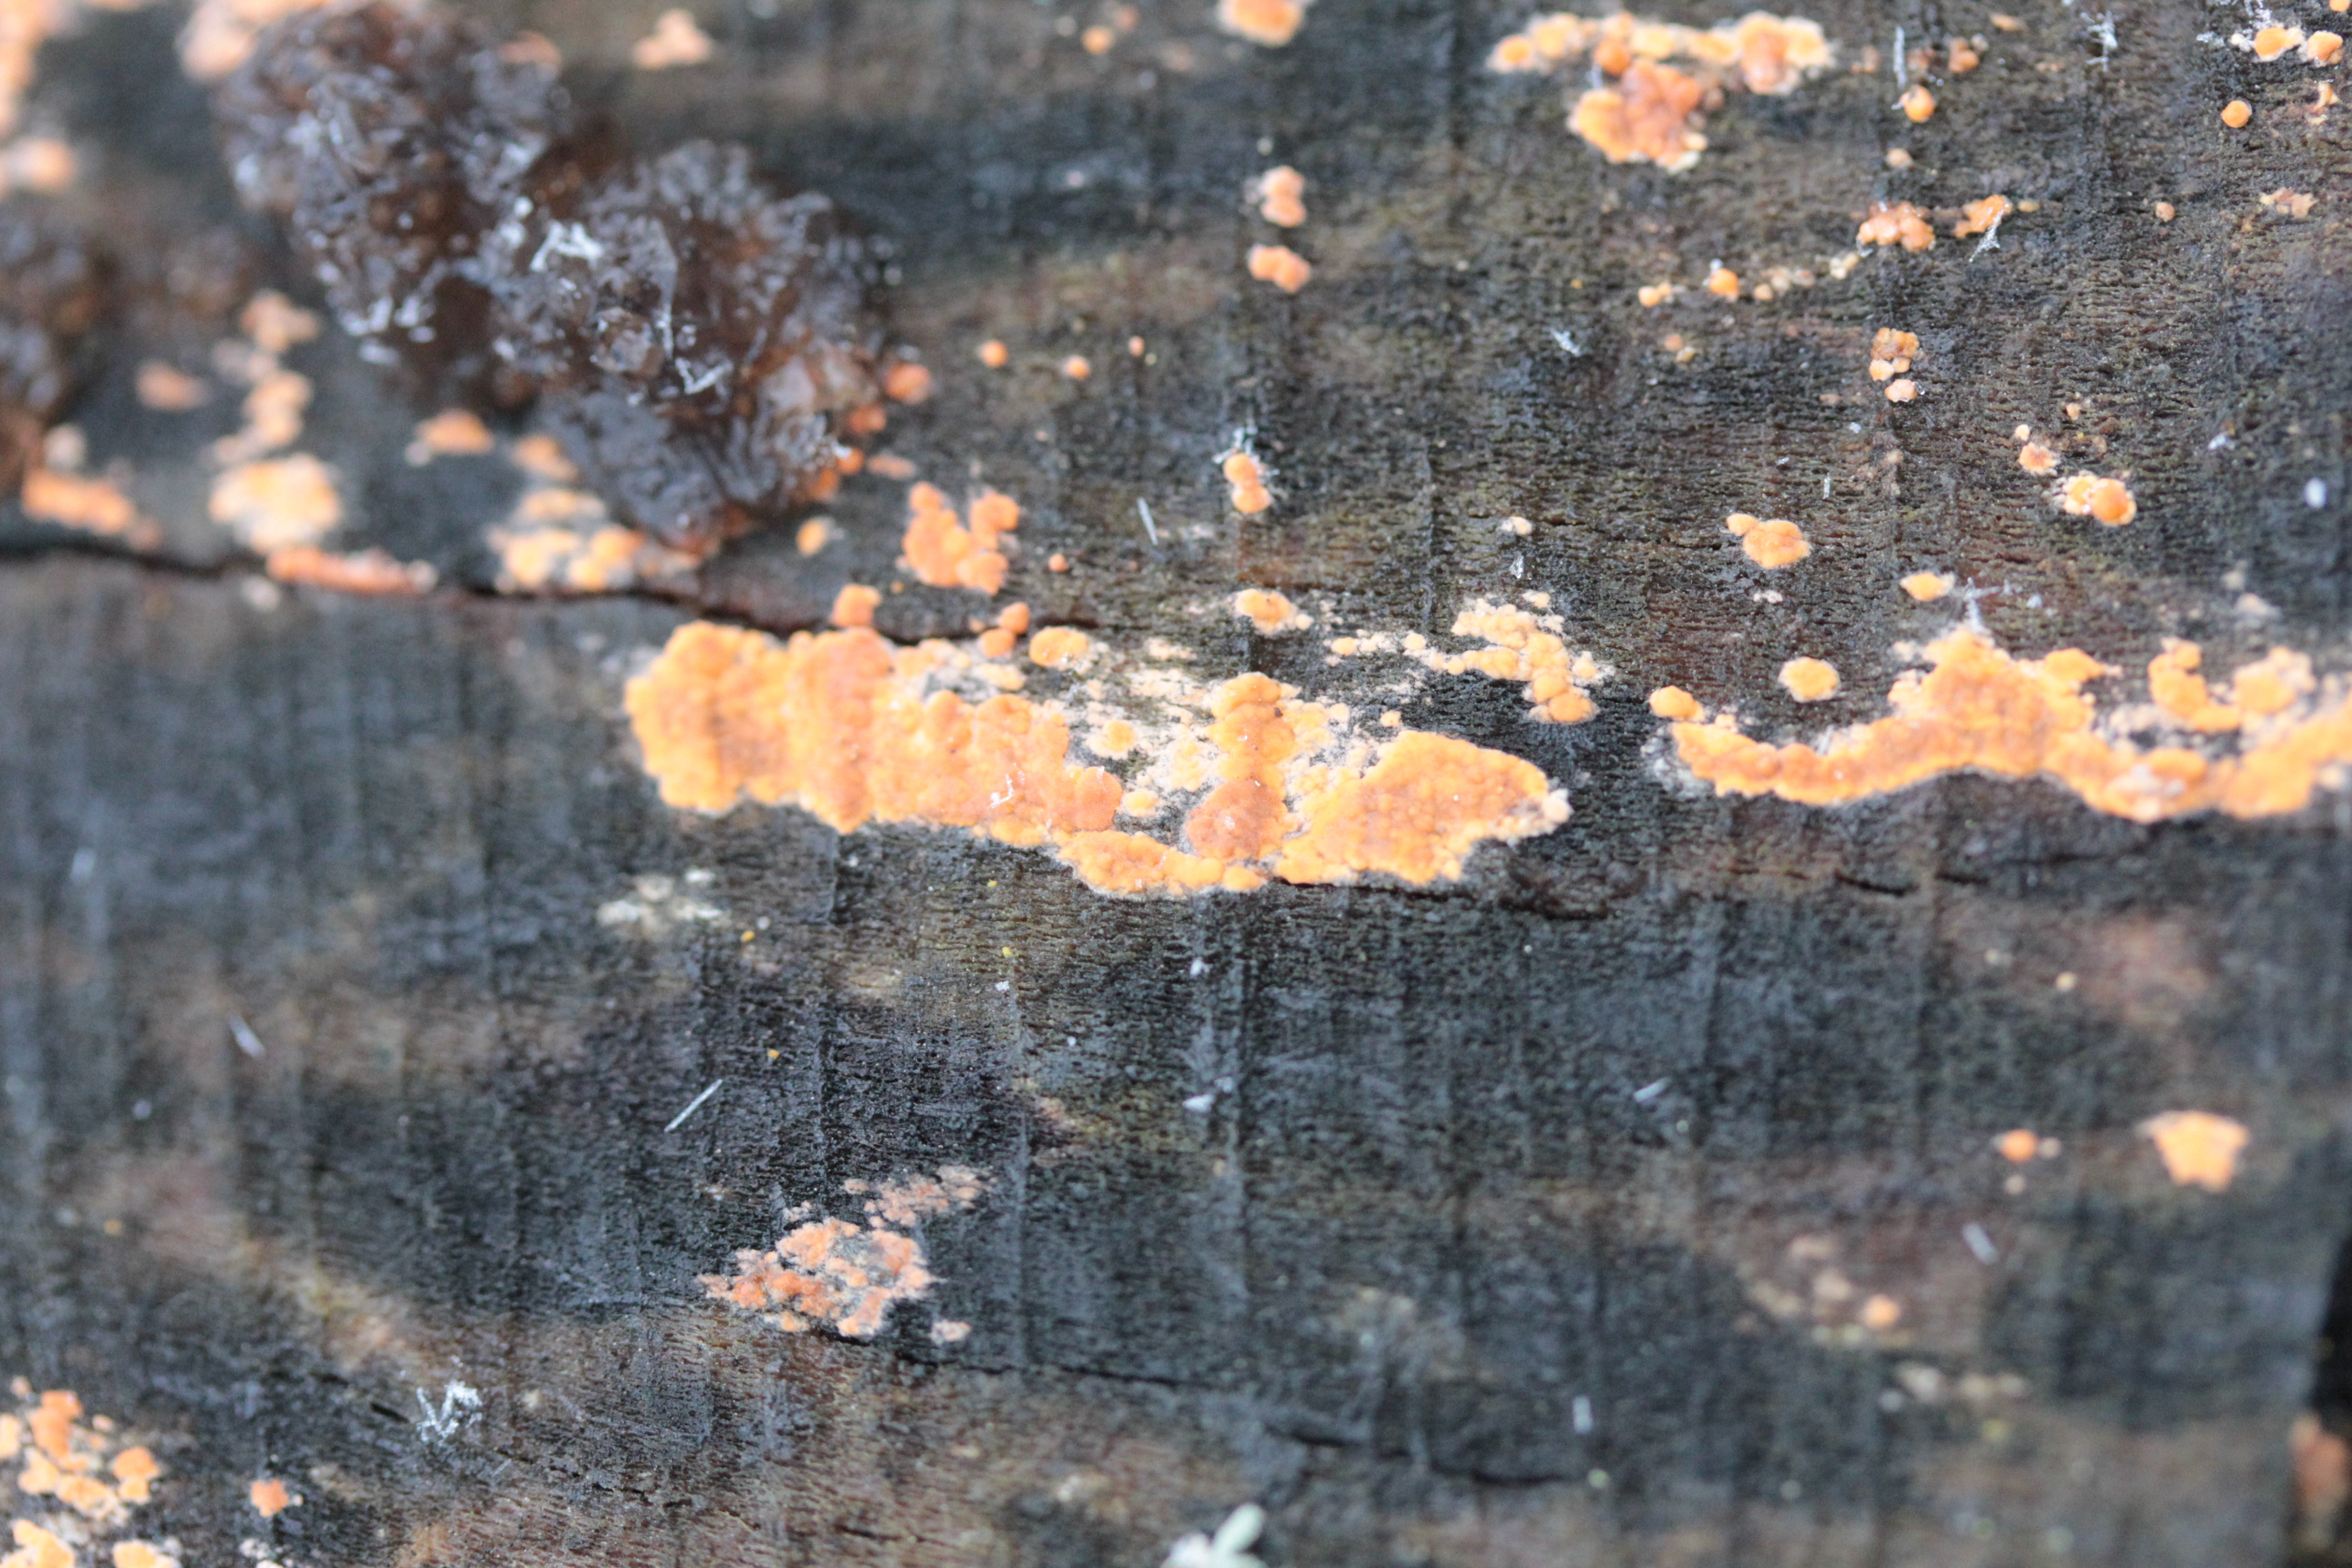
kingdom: Fungi
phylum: Basidiomycota
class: Agaricomycetes
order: Russulales
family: Peniophoraceae
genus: Peniophora
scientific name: Peniophora incarnata
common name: Rosy crust
